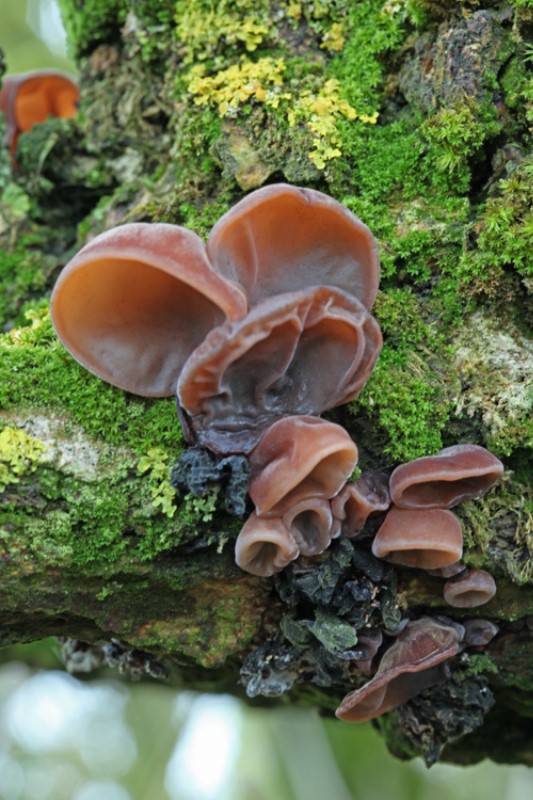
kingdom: Fungi
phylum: Basidiomycota
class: Agaricomycetes
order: Auriculariales
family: Auriculariaceae
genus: Auricularia
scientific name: Auricularia auricula-judae
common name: almindelig judasøre
